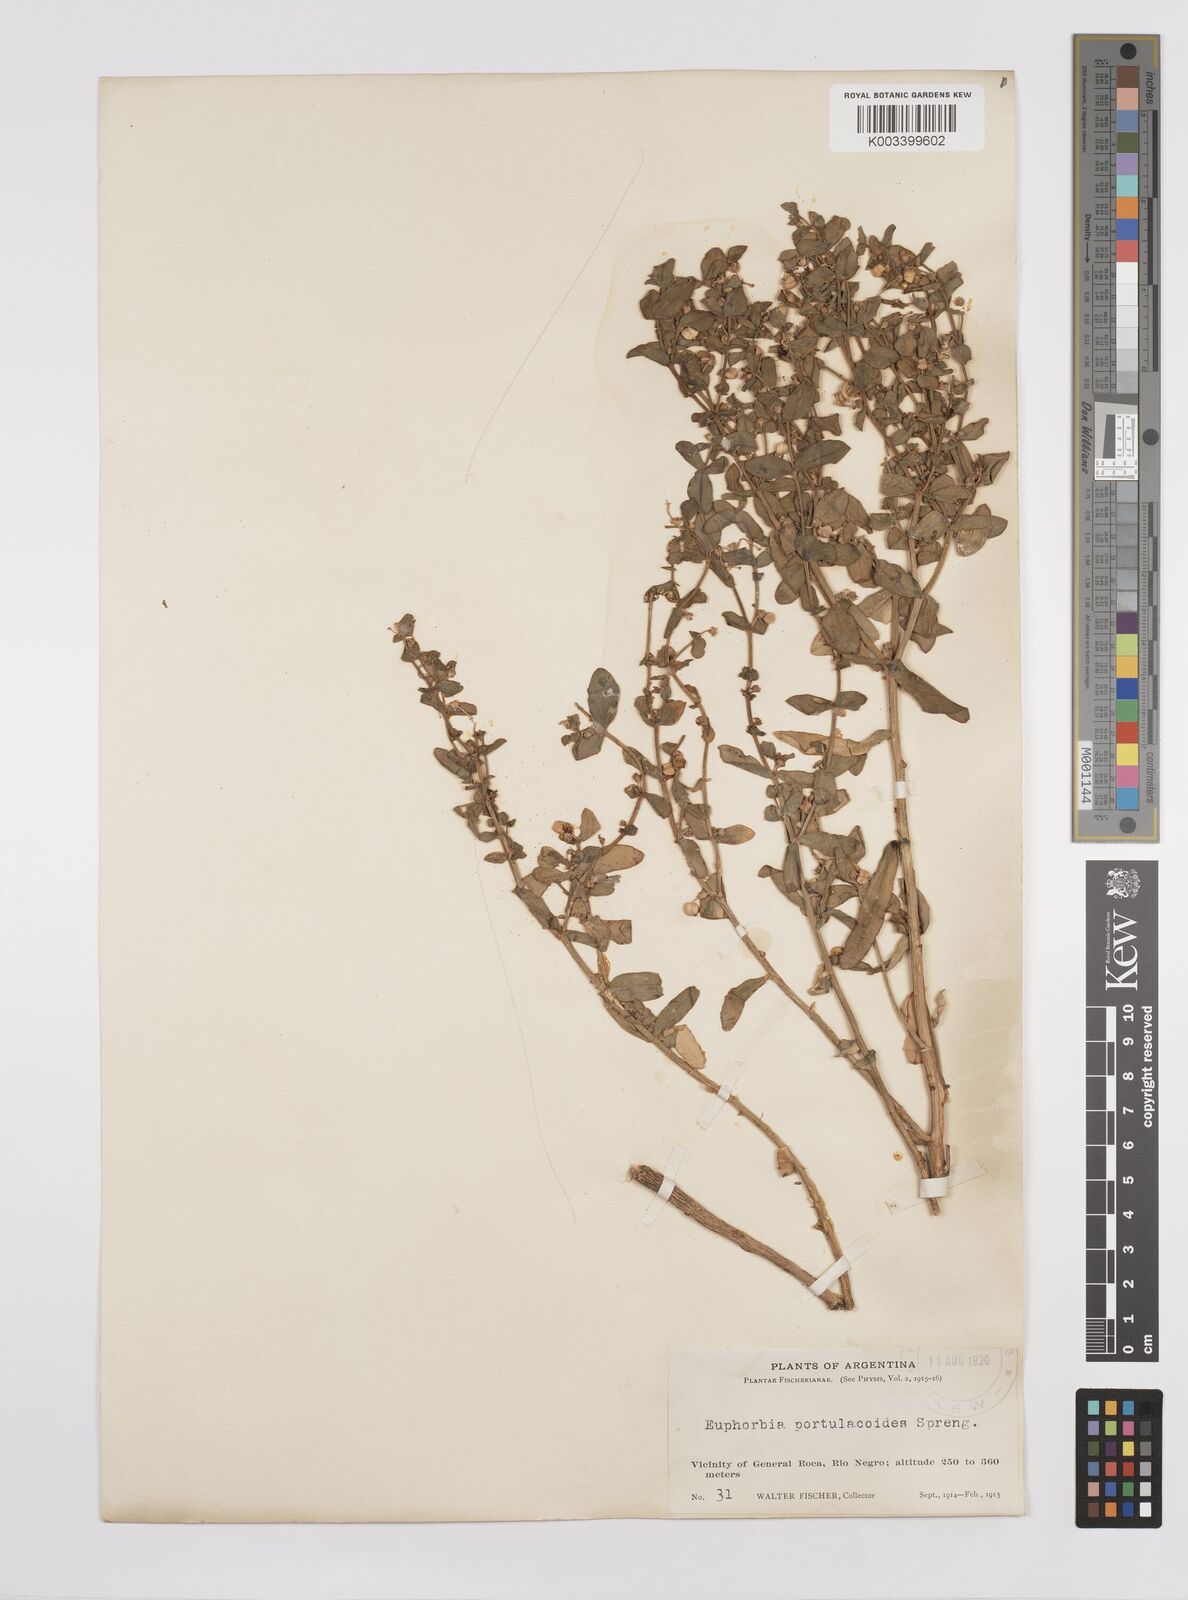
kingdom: Plantae
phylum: Tracheophyta
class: Magnoliopsida
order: Malpighiales
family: Euphorbiaceae
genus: Euphorbia
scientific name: Euphorbia portulacoides
